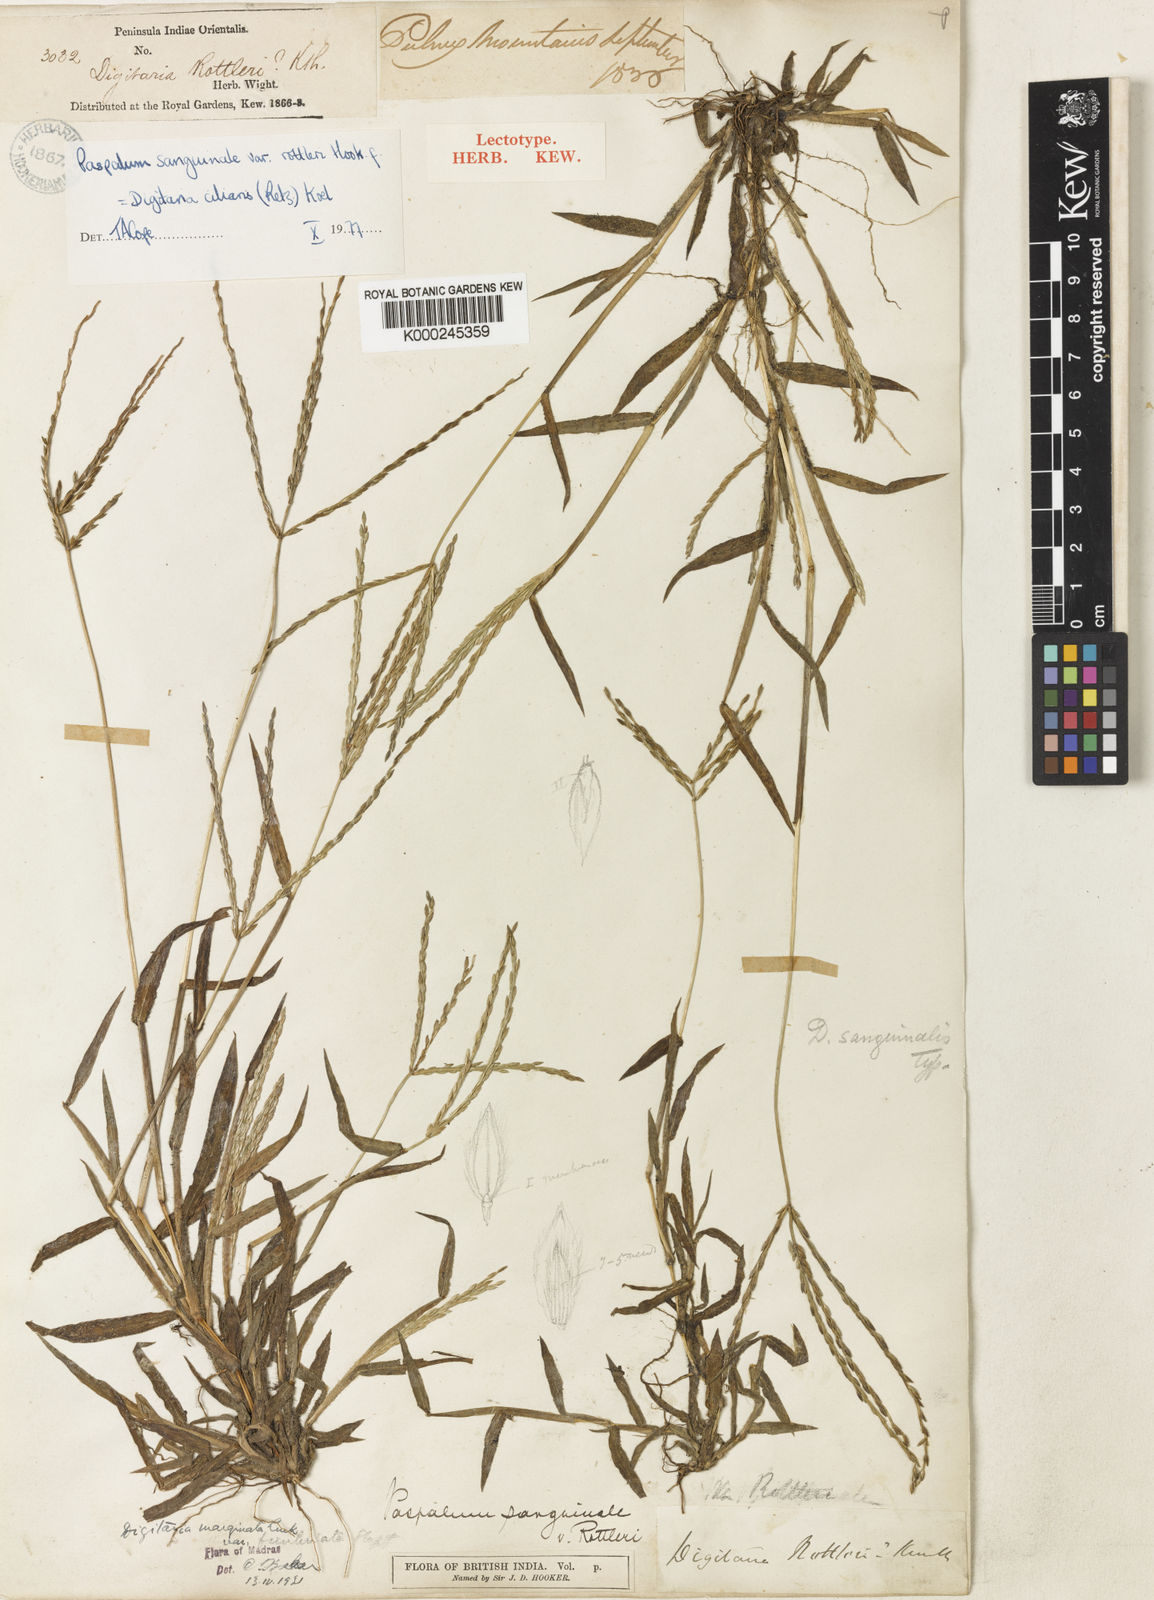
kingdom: Plantae
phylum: Tracheophyta
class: Liliopsida
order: Poales
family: Poaceae
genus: Digitaria
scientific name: Digitaria ciliaris
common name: Tropical finger-grass
